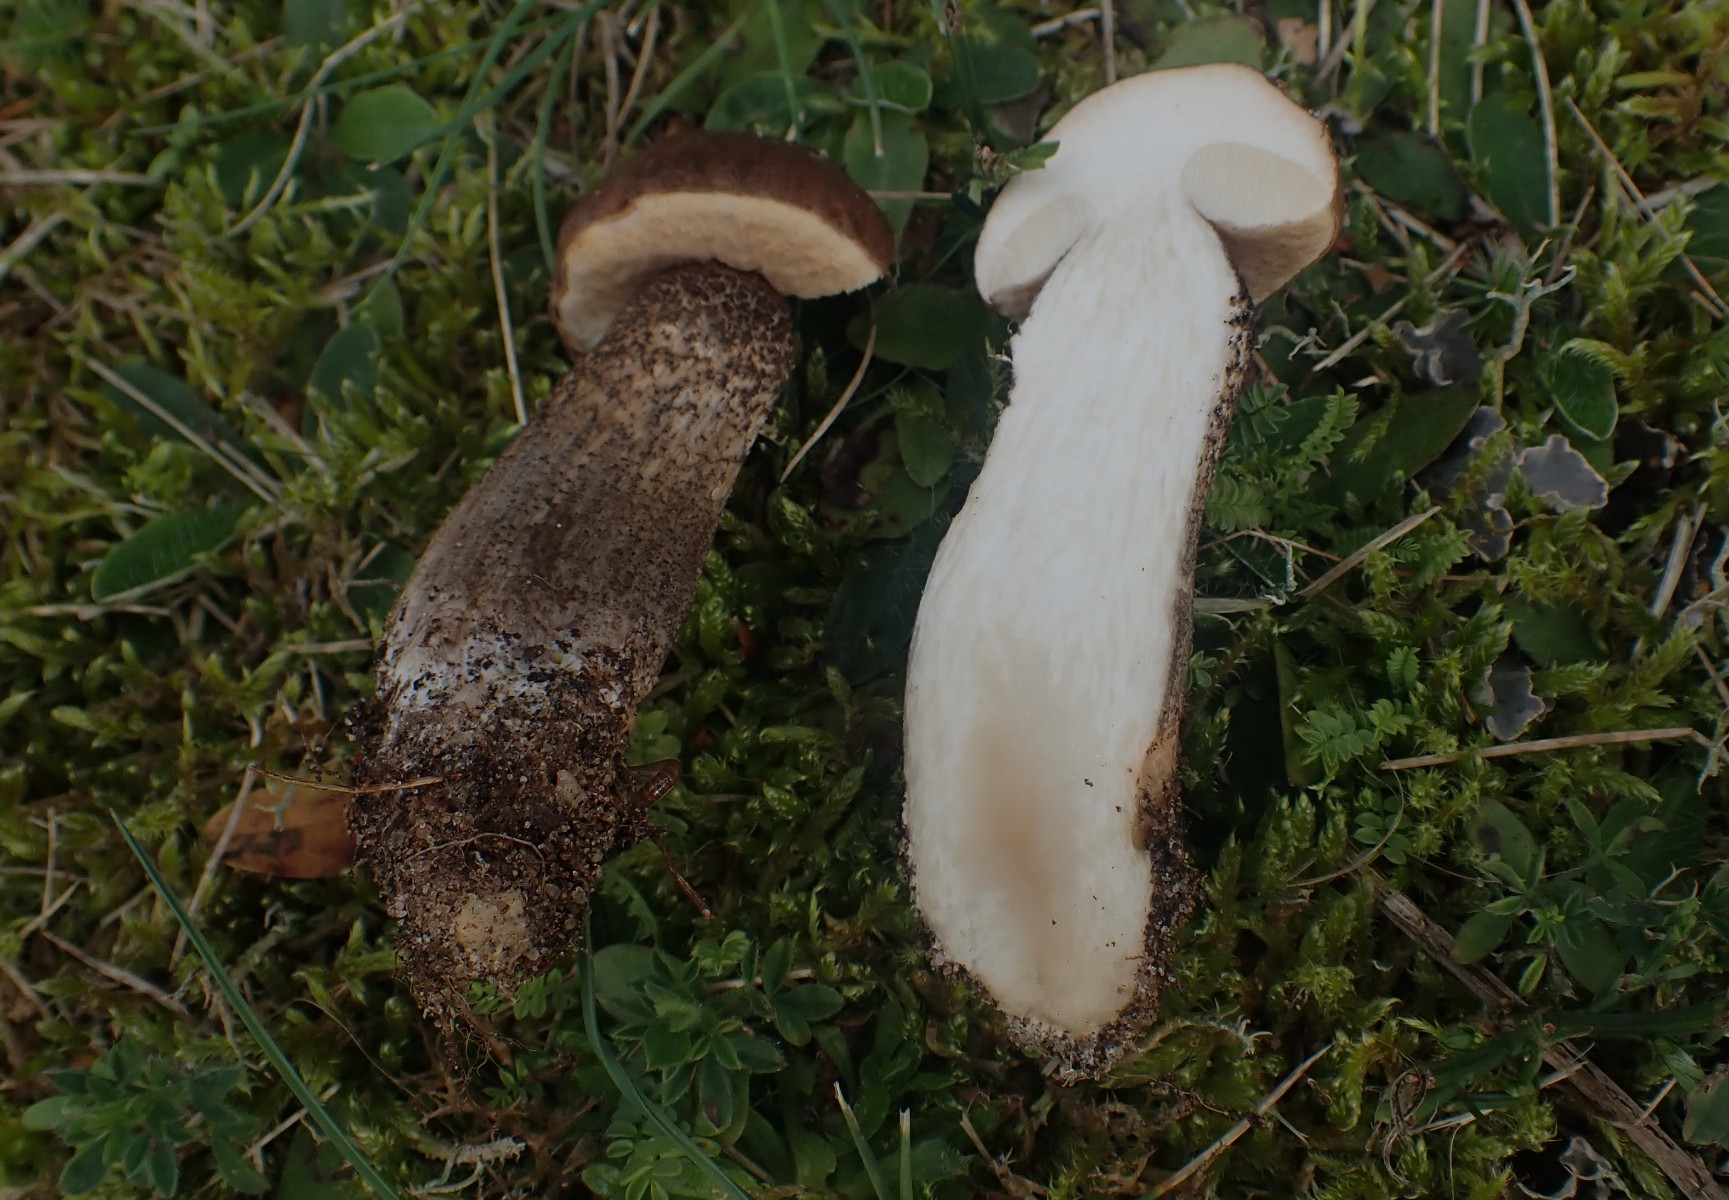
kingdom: Fungi
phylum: Basidiomycota
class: Agaricomycetes
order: Boletales
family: Boletaceae
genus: Leccinum
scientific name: Leccinum scabrum
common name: brun skælrørhat
